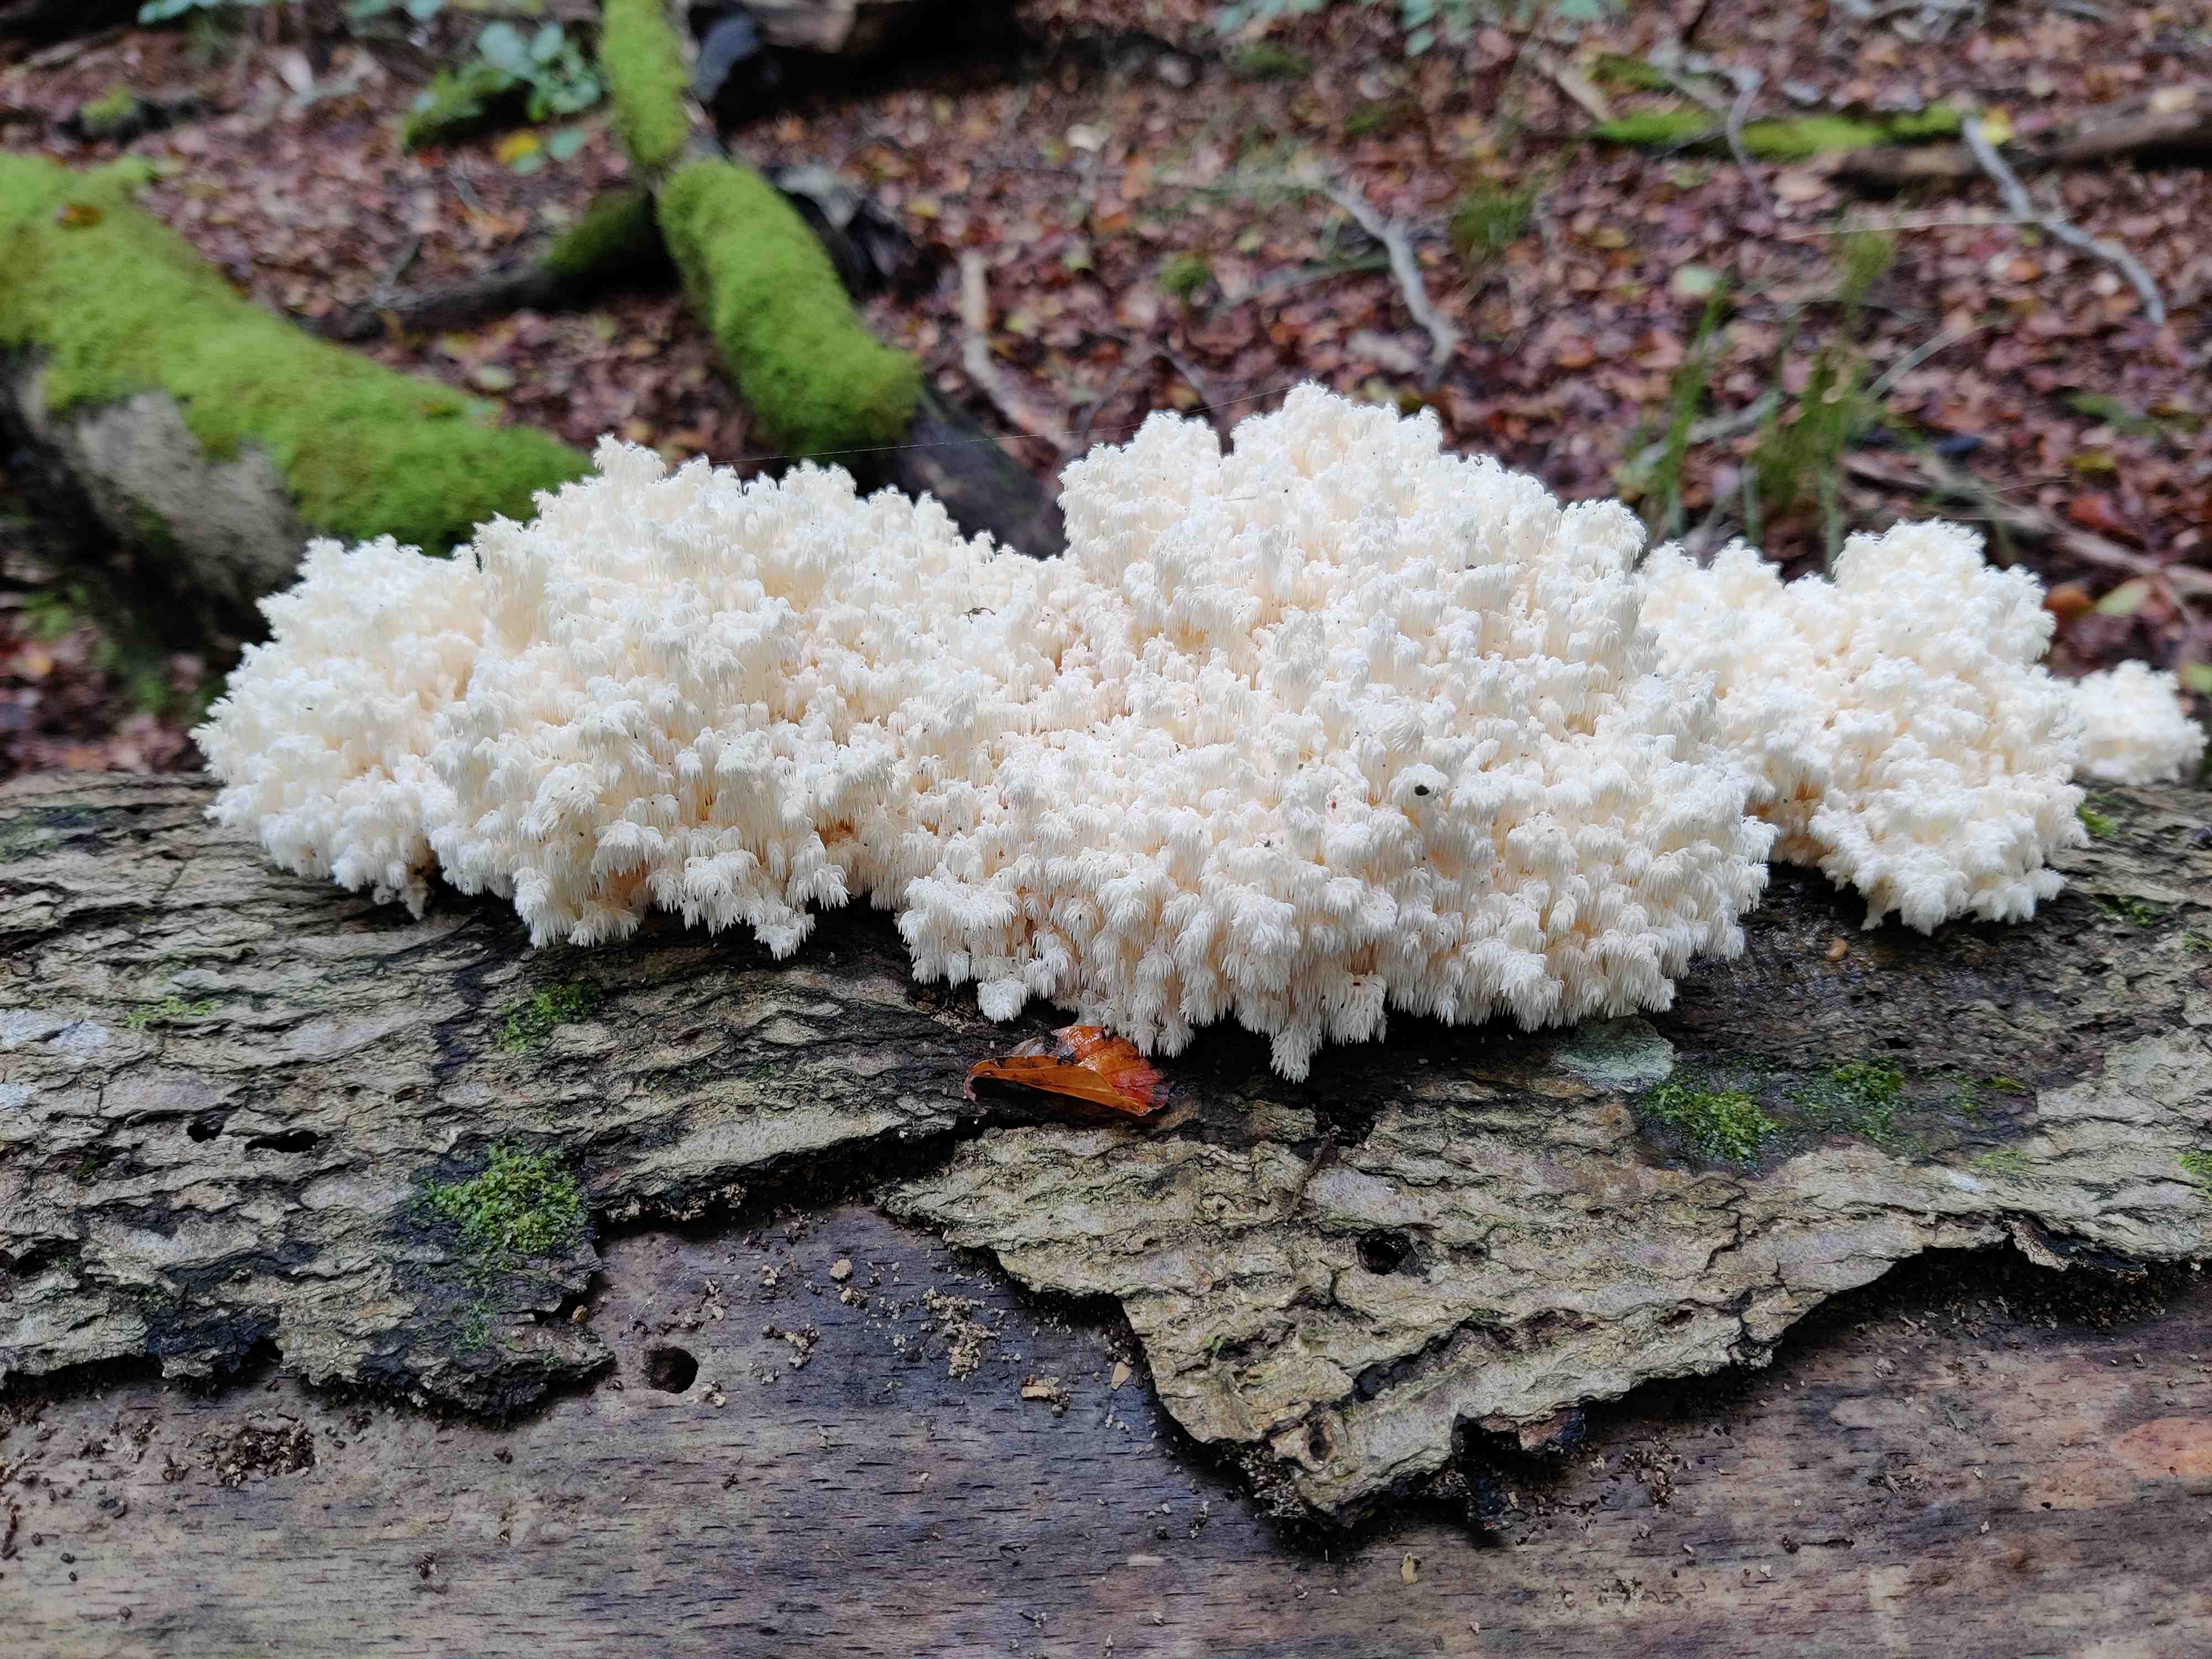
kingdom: Fungi
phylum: Basidiomycota
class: Agaricomycetes
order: Russulales
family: Hericiaceae
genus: Hericium
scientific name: Hericium coralloides
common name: koralpigsvamp
